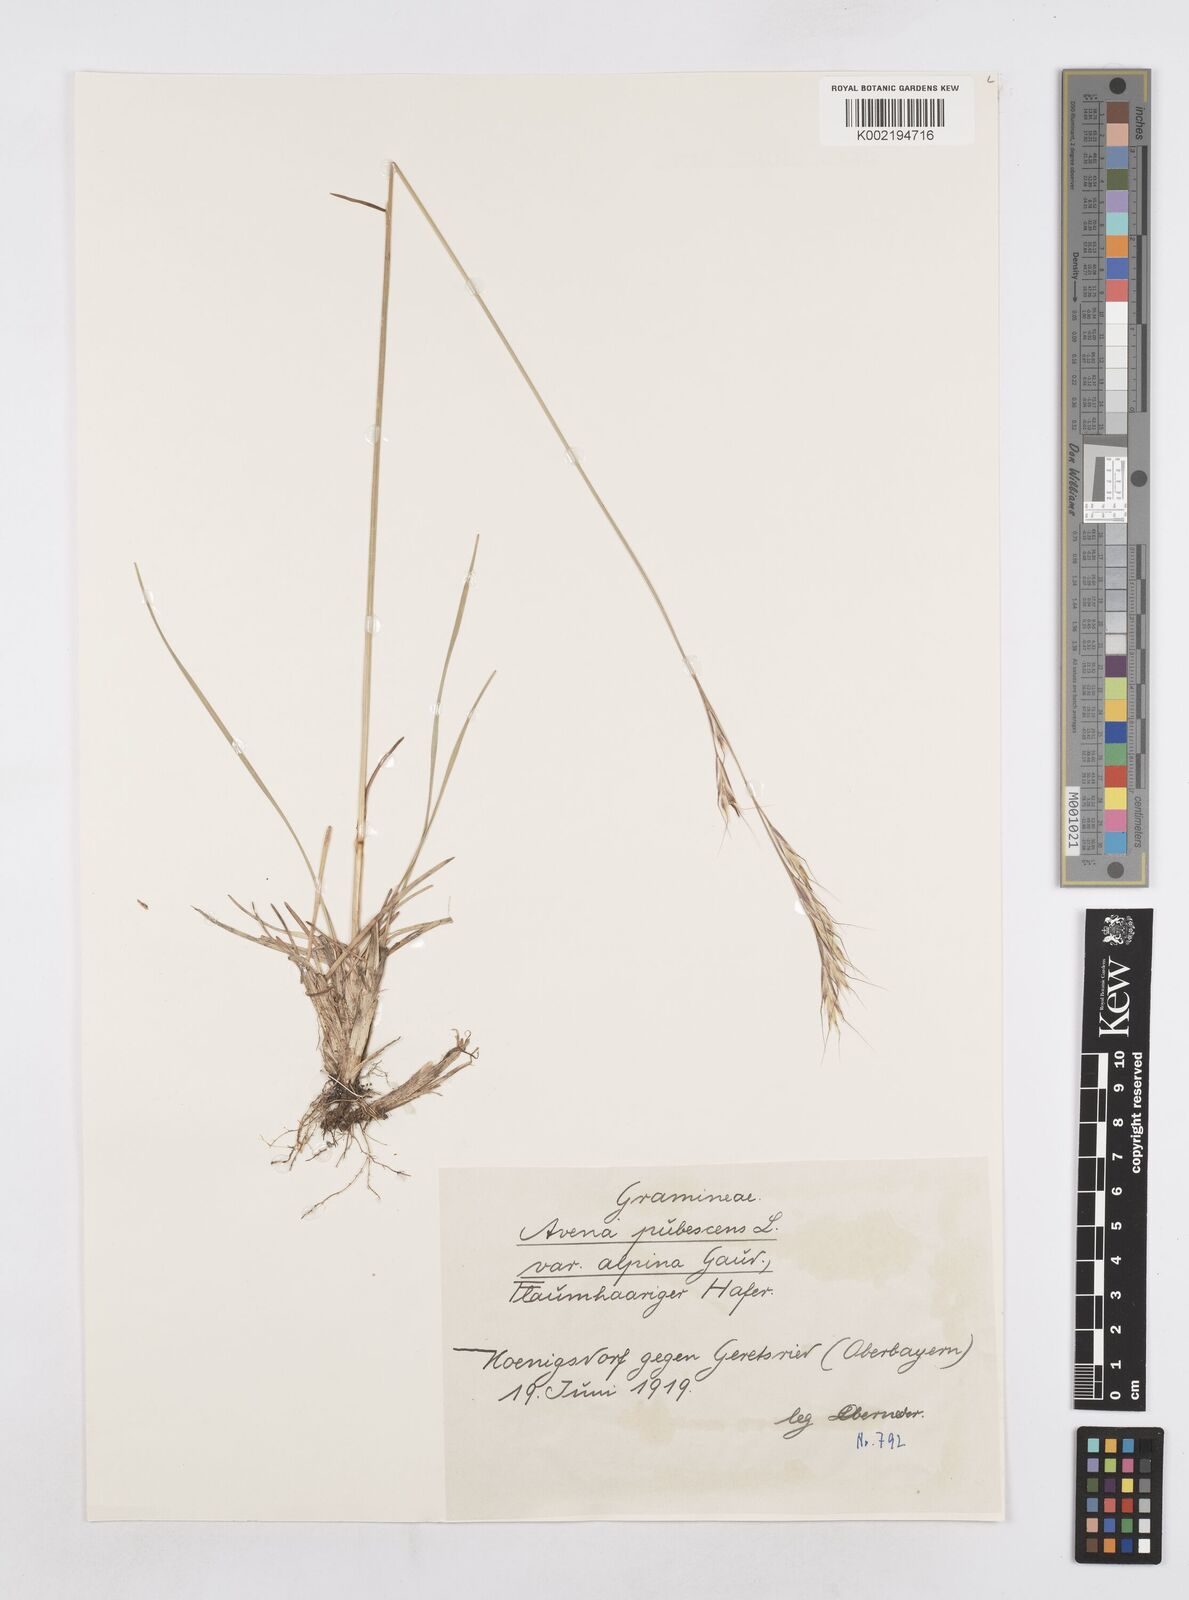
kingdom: Plantae
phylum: Tracheophyta
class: Liliopsida
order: Poales
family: Poaceae
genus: Avenula
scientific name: Avenula pubescens
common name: Downy alpine oatgrass
